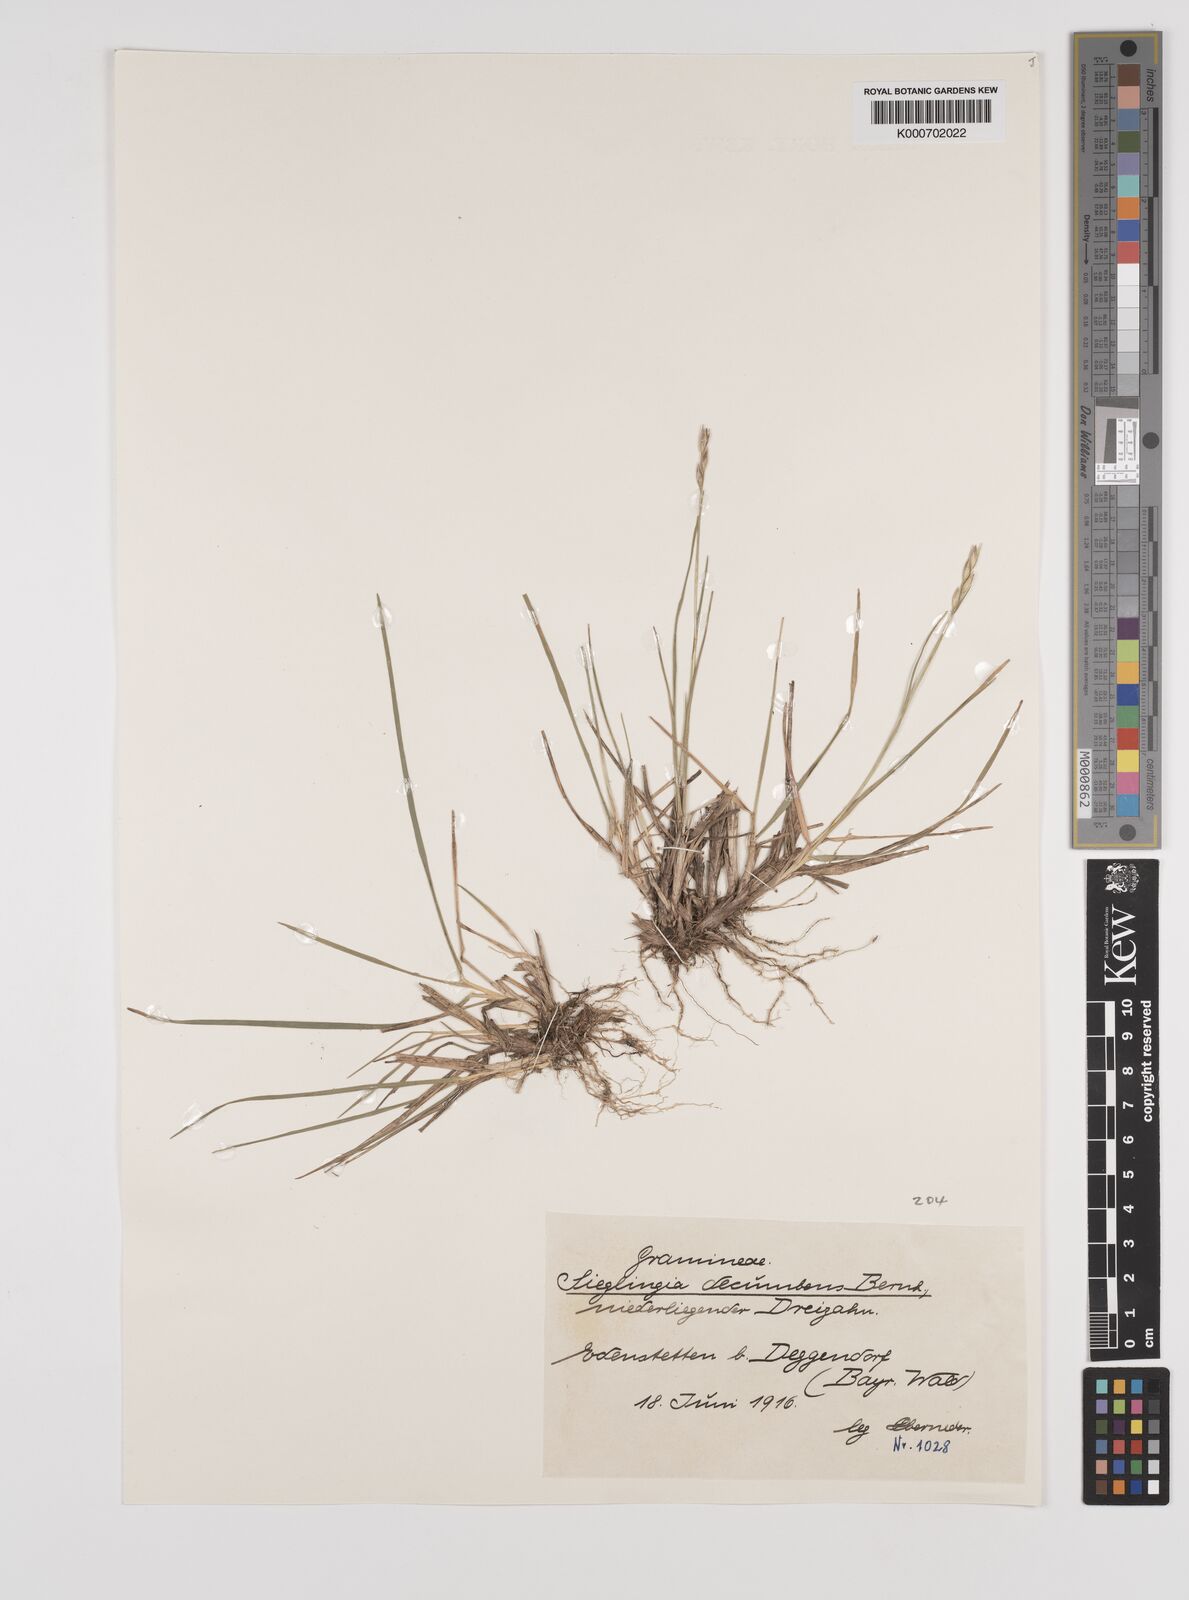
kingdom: Plantae
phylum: Tracheophyta
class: Liliopsida
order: Poales
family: Poaceae
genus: Danthonia
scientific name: Danthonia decumbens
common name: Common heathgrass
